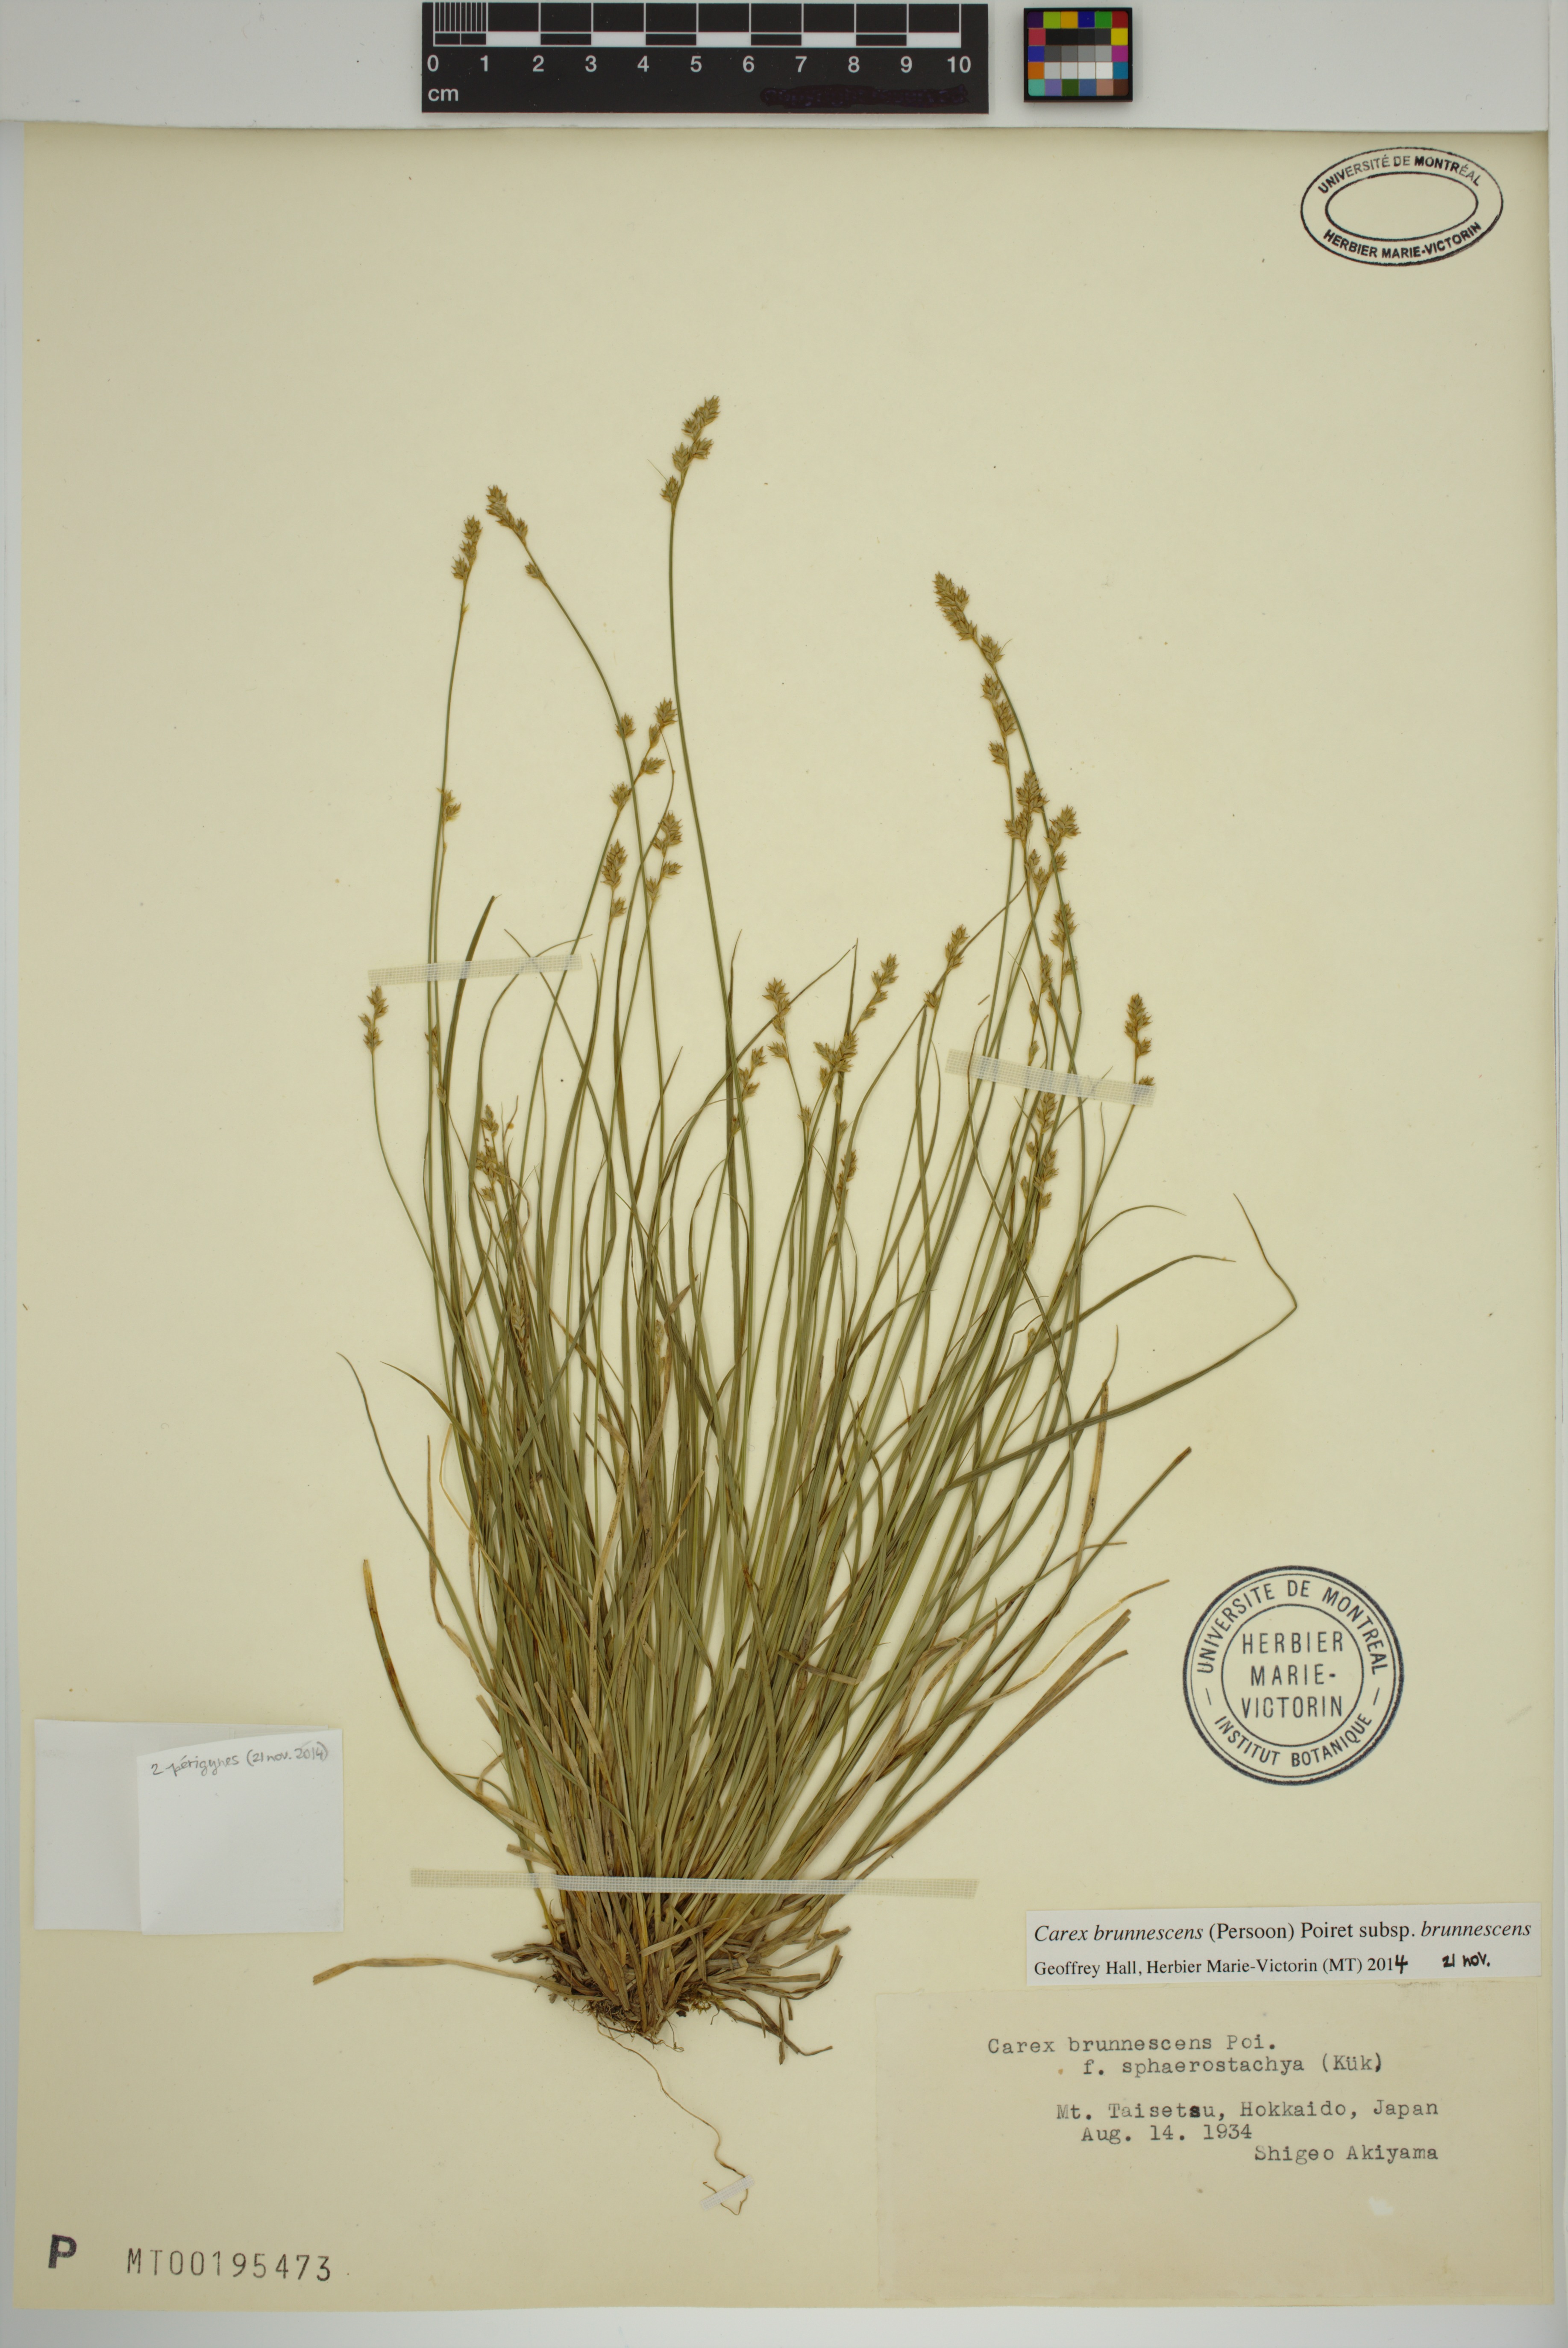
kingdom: Plantae
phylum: Tracheophyta
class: Liliopsida
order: Poales
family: Cyperaceae
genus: Carex
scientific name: Carex brunnescens
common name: Brown sedge
